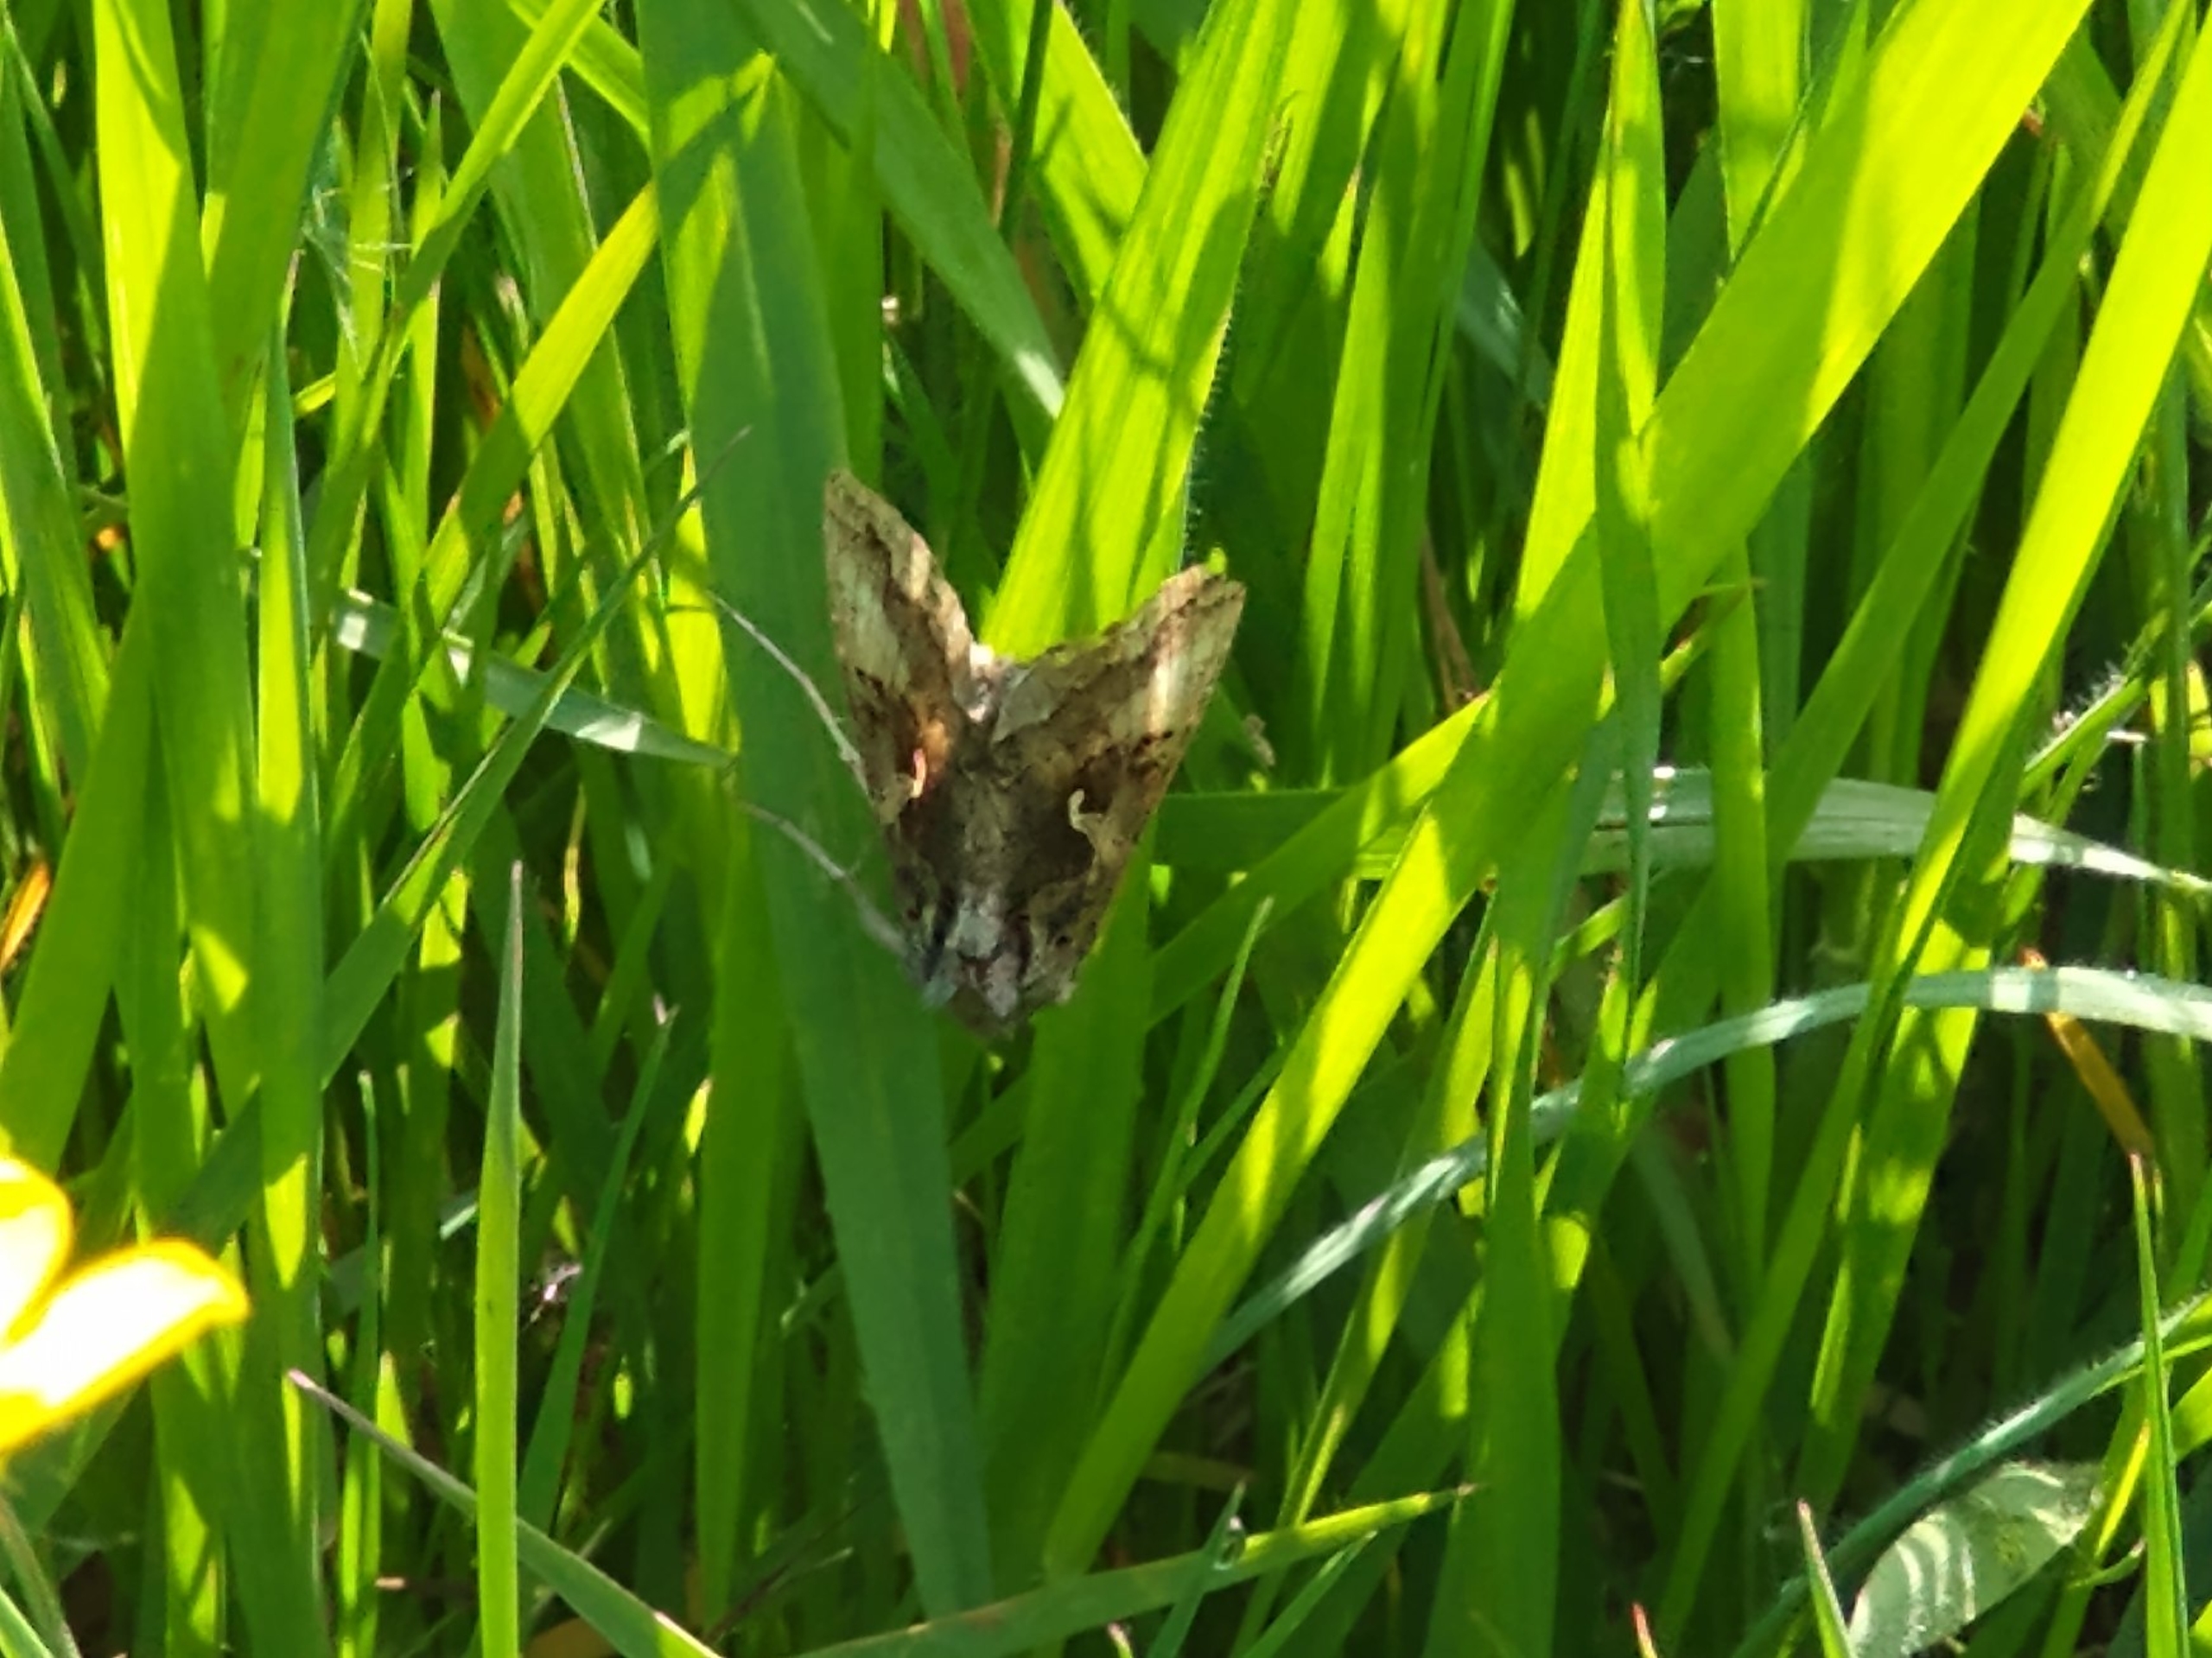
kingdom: Animalia
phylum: Arthropoda
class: Insecta
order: Lepidoptera
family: Noctuidae
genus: Autographa
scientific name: Autographa gamma
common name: Gammaugle
